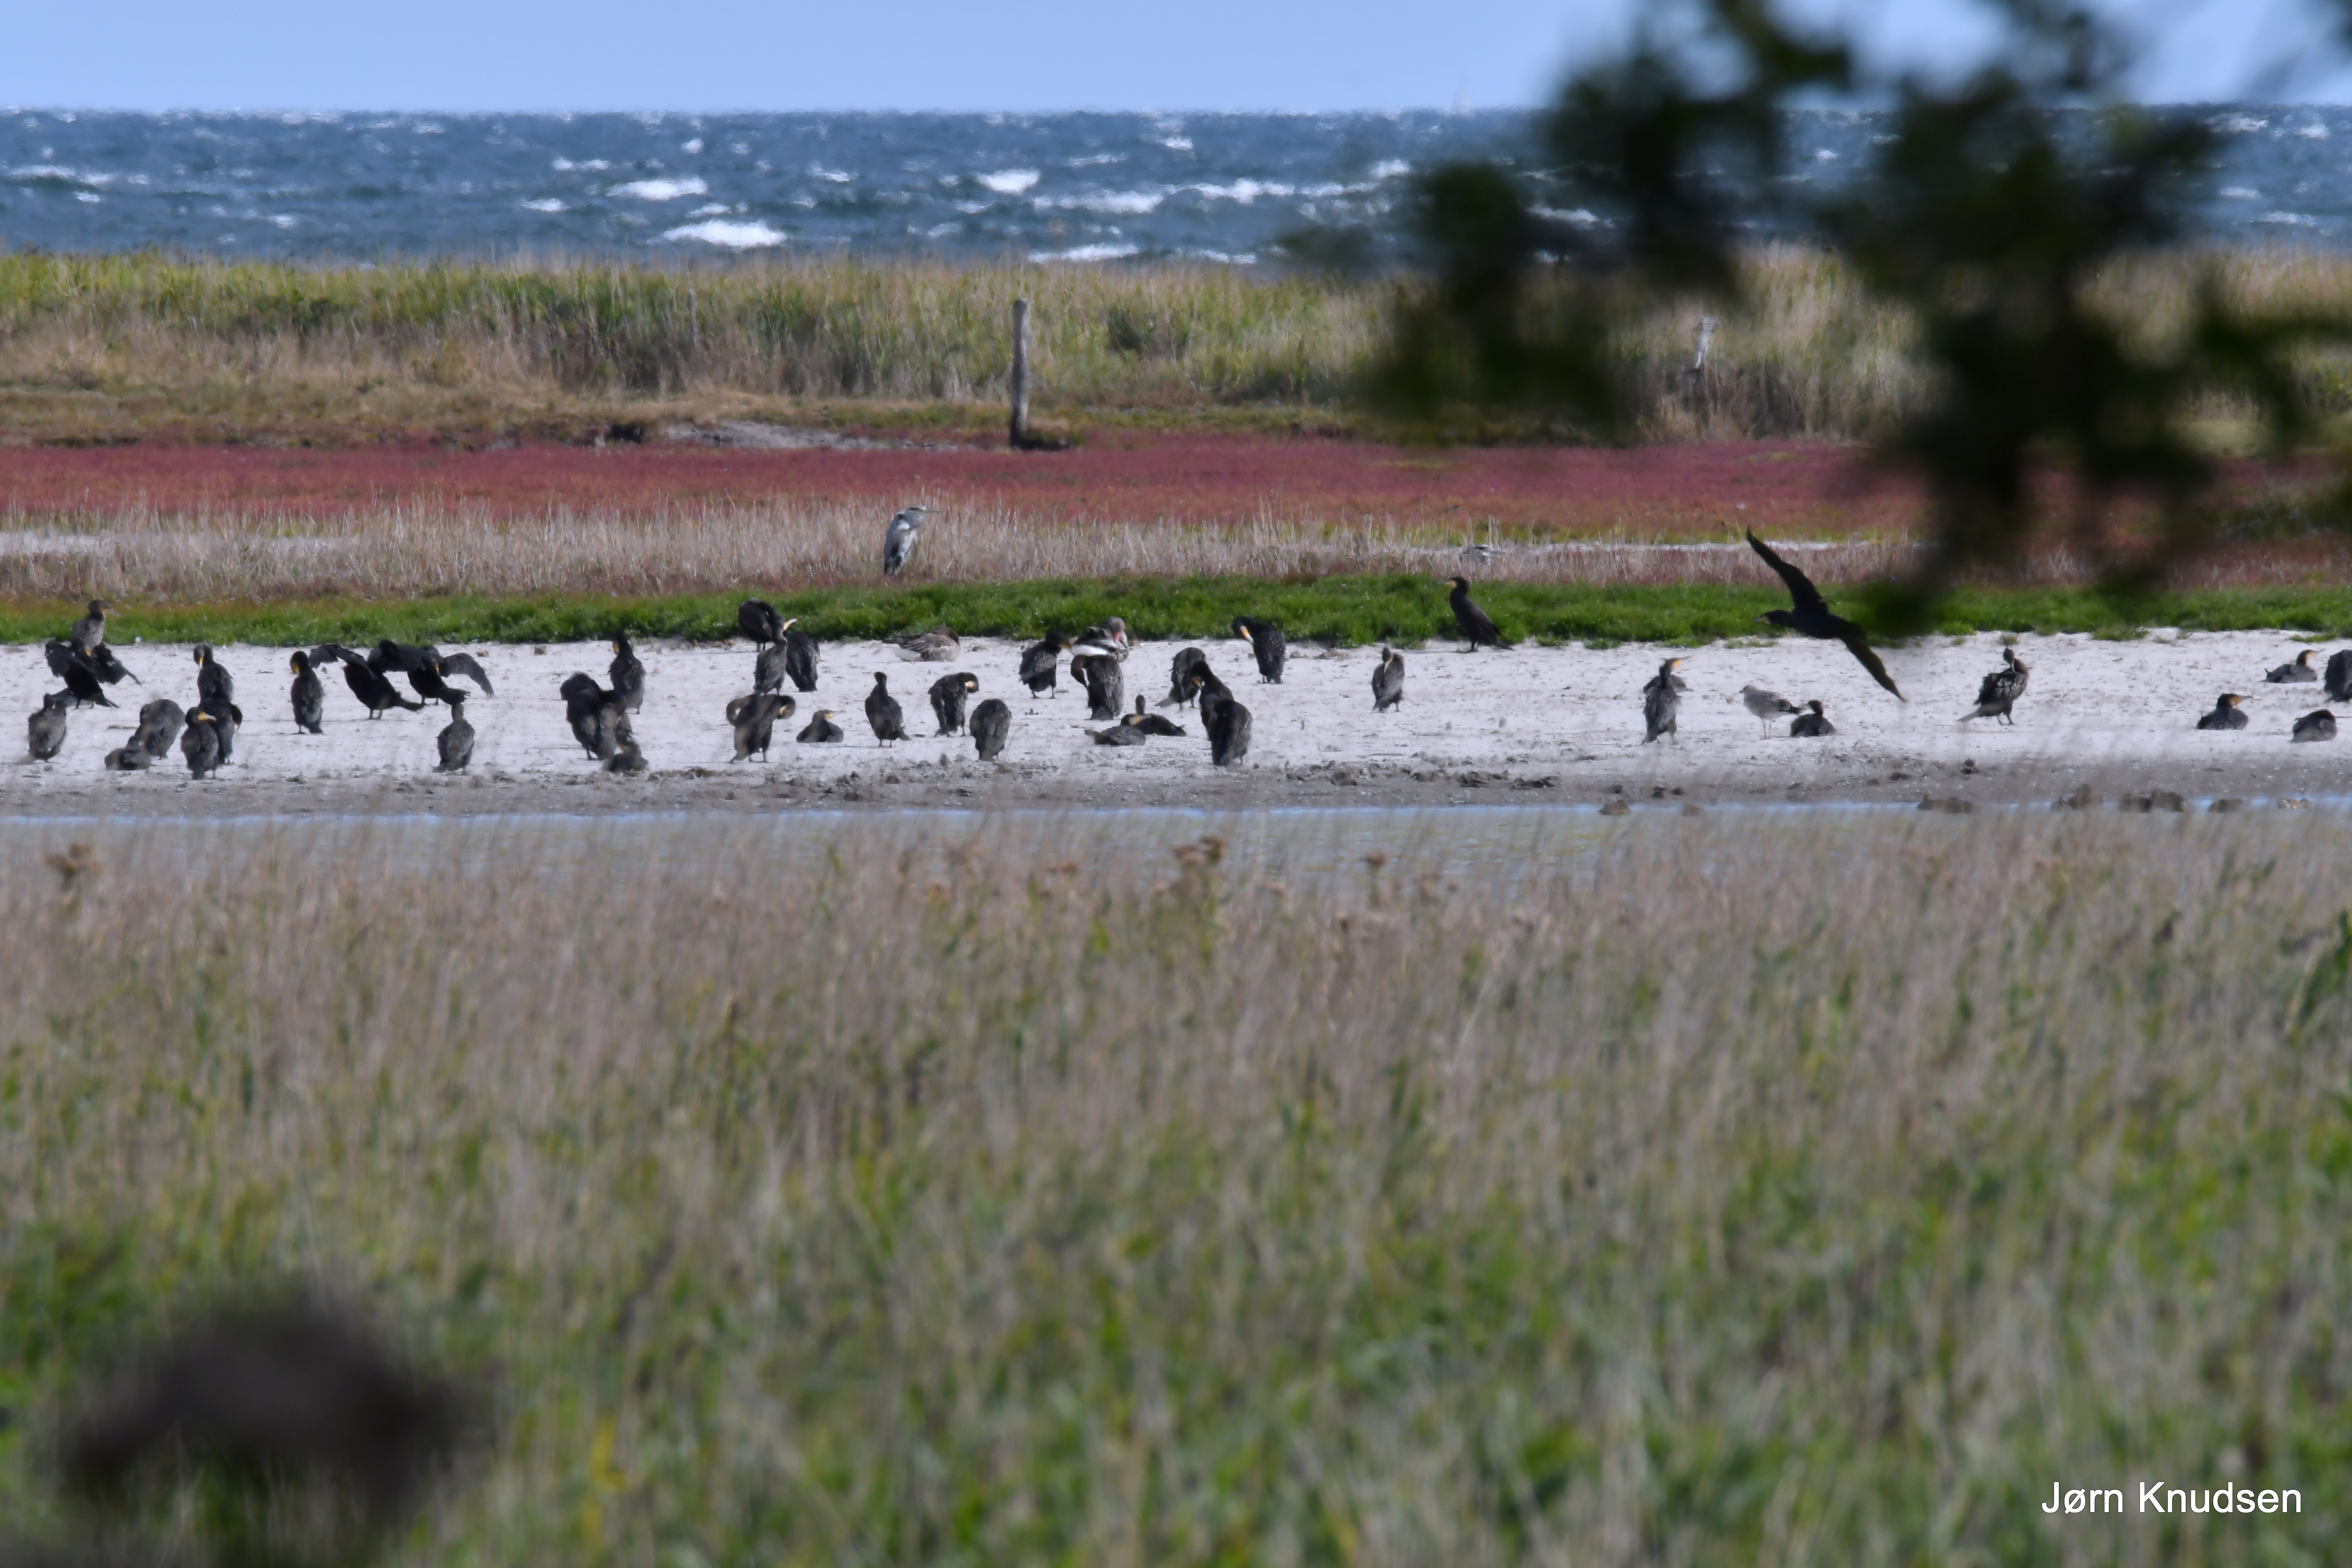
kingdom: Animalia
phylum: Chordata
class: Aves
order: Suliformes
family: Phalacrocoracidae
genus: Phalacrocorax
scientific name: Phalacrocorax carbo
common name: Skarv
